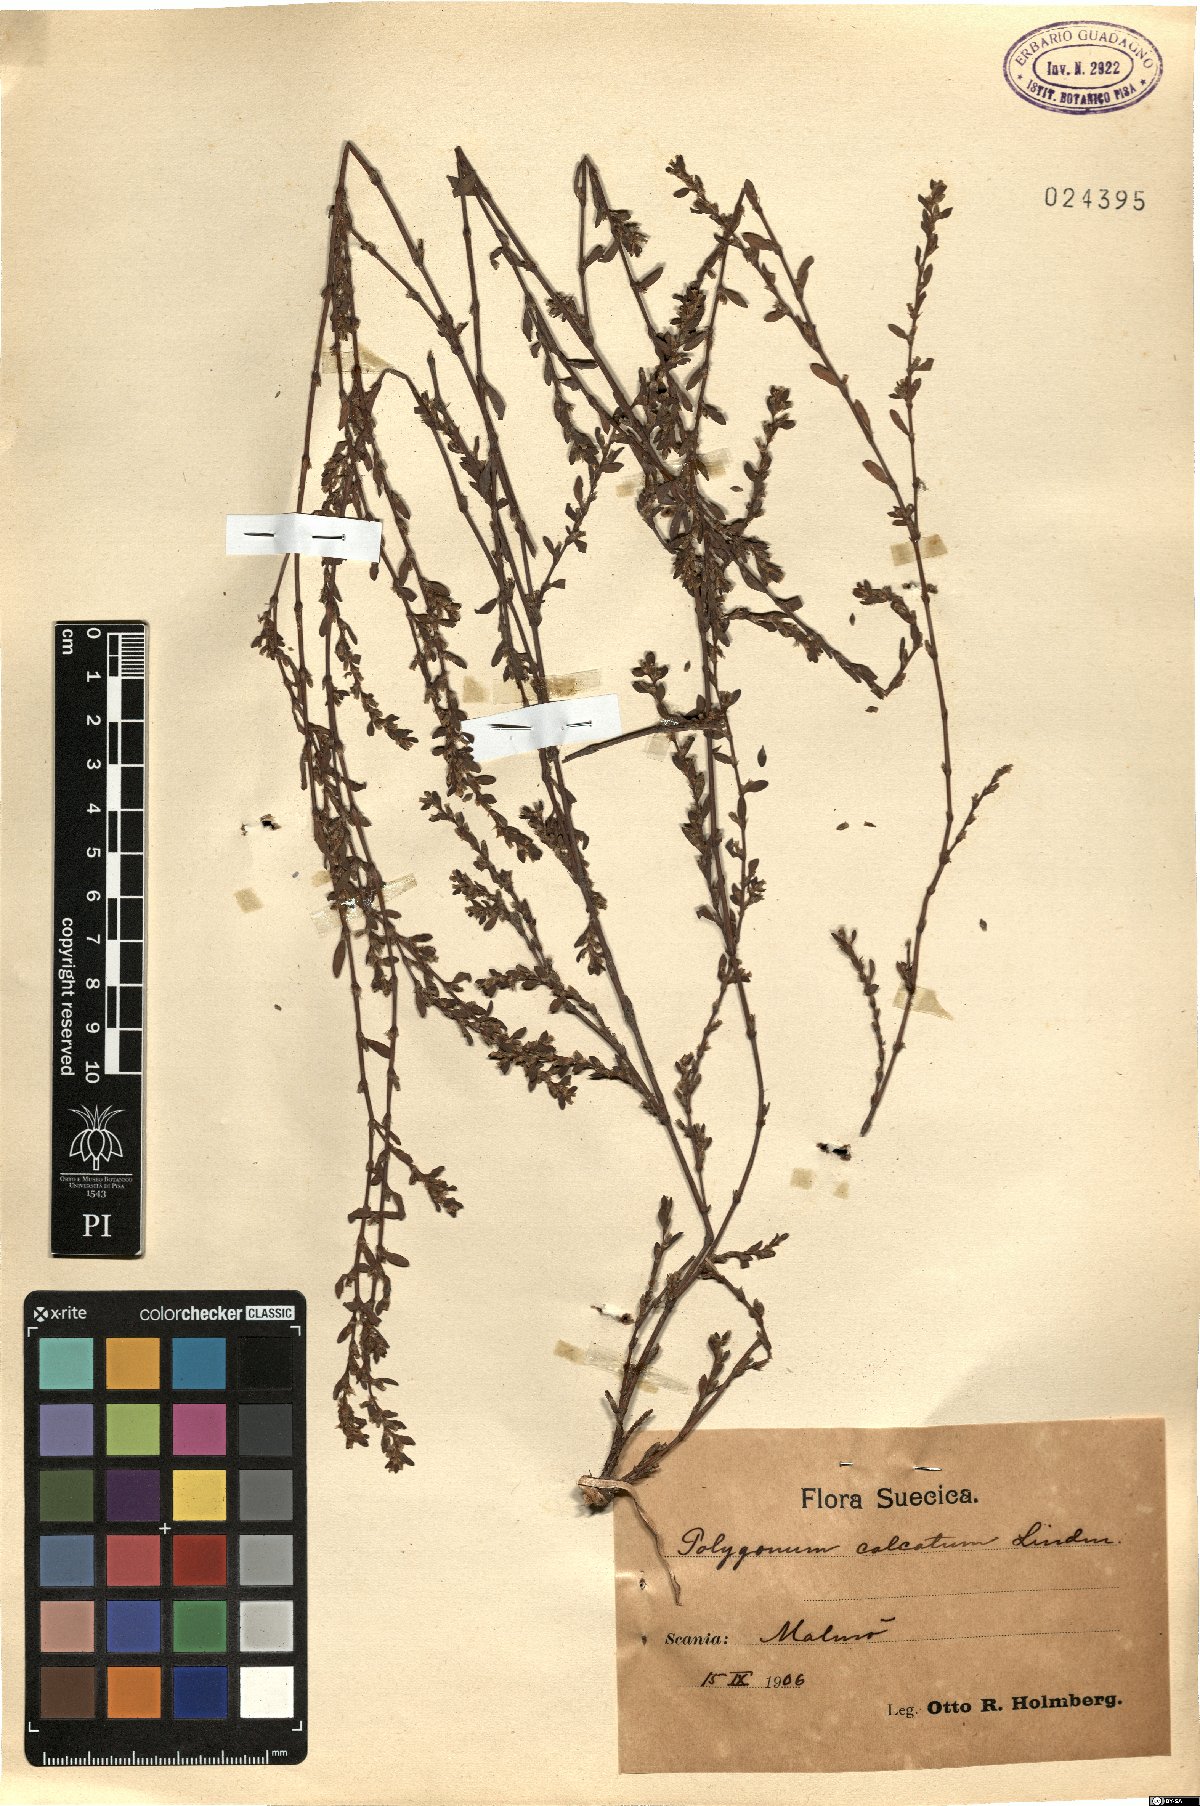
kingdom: Plantae
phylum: Tracheophyta
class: Magnoliopsida
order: Caryophyllales
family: Polygonaceae
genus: Polygonum
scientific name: Polygonum arenastrum
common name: Equal-leaved knotgrass
